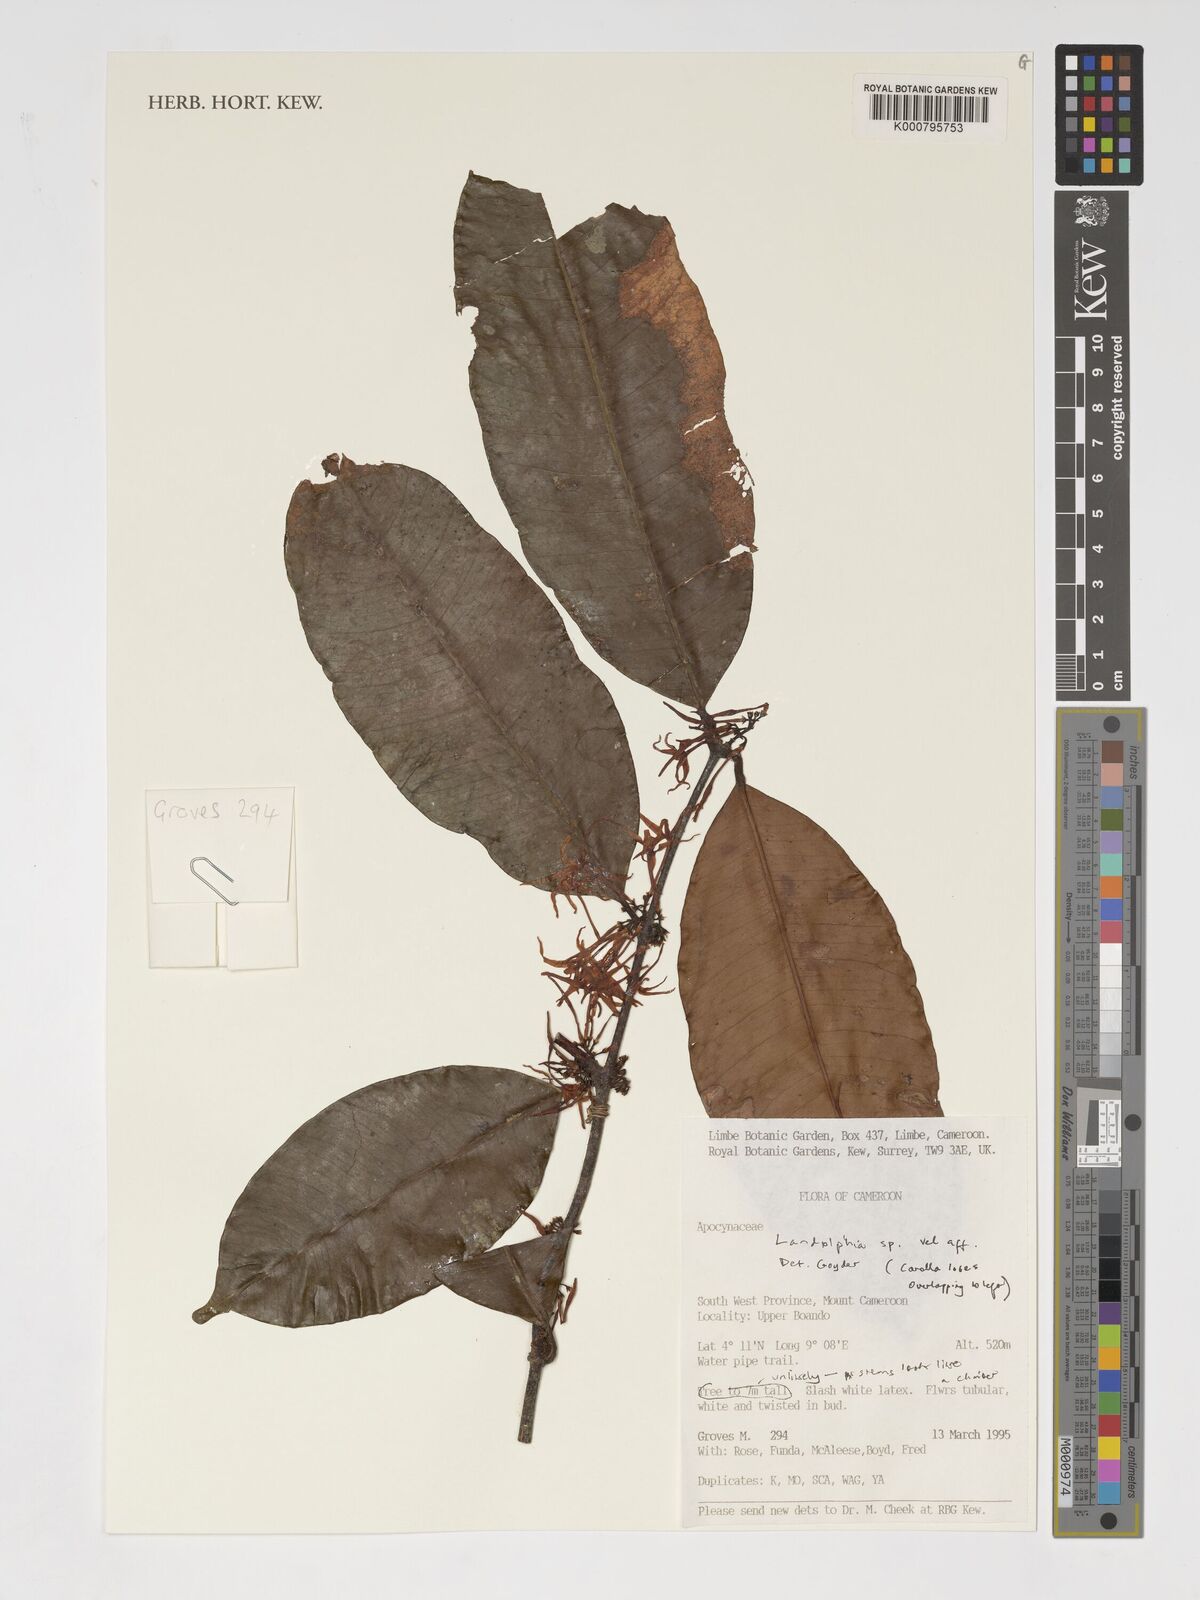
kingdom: Plantae
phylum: Tracheophyta
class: Magnoliopsida
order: Gentianales
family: Apocynaceae
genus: Landolphia
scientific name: Landolphia
